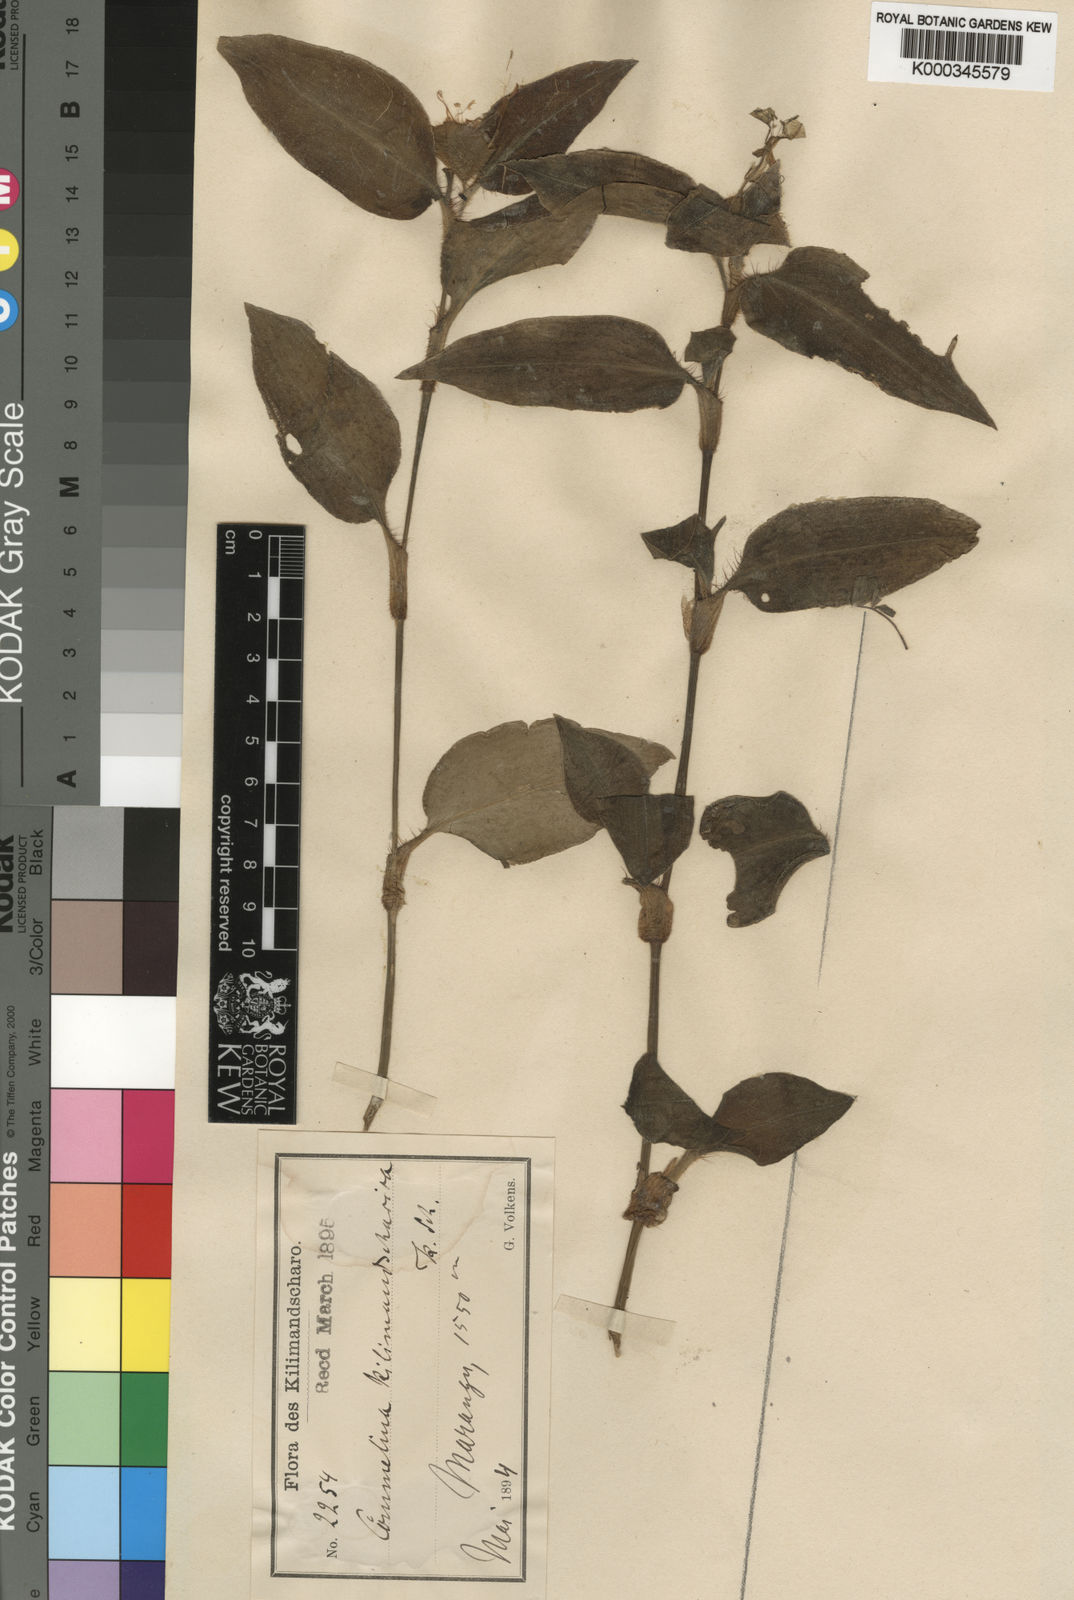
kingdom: Plantae
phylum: Tracheophyta
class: Liliopsida
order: Commelinales
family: Commelinaceae
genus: Commelina
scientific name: Commelina benghalensis
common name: Jio
